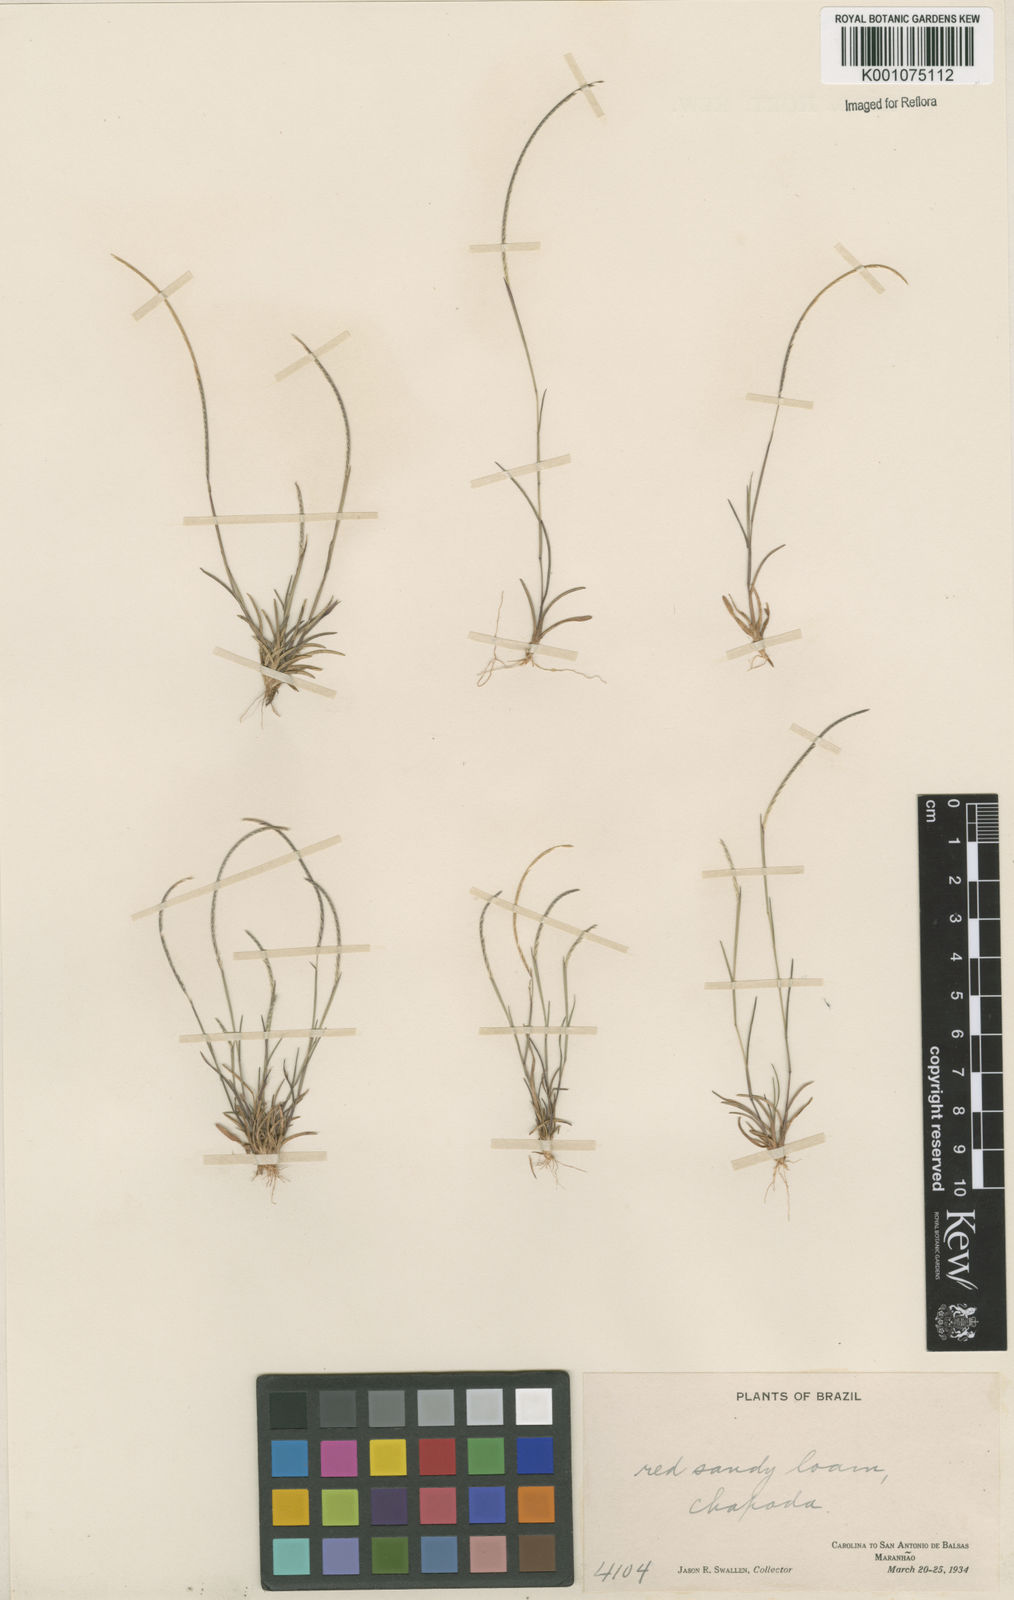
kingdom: Plantae
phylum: Tracheophyta
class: Liliopsida
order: Poales
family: Poaceae
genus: Microchloa
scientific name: Microchloa indica
